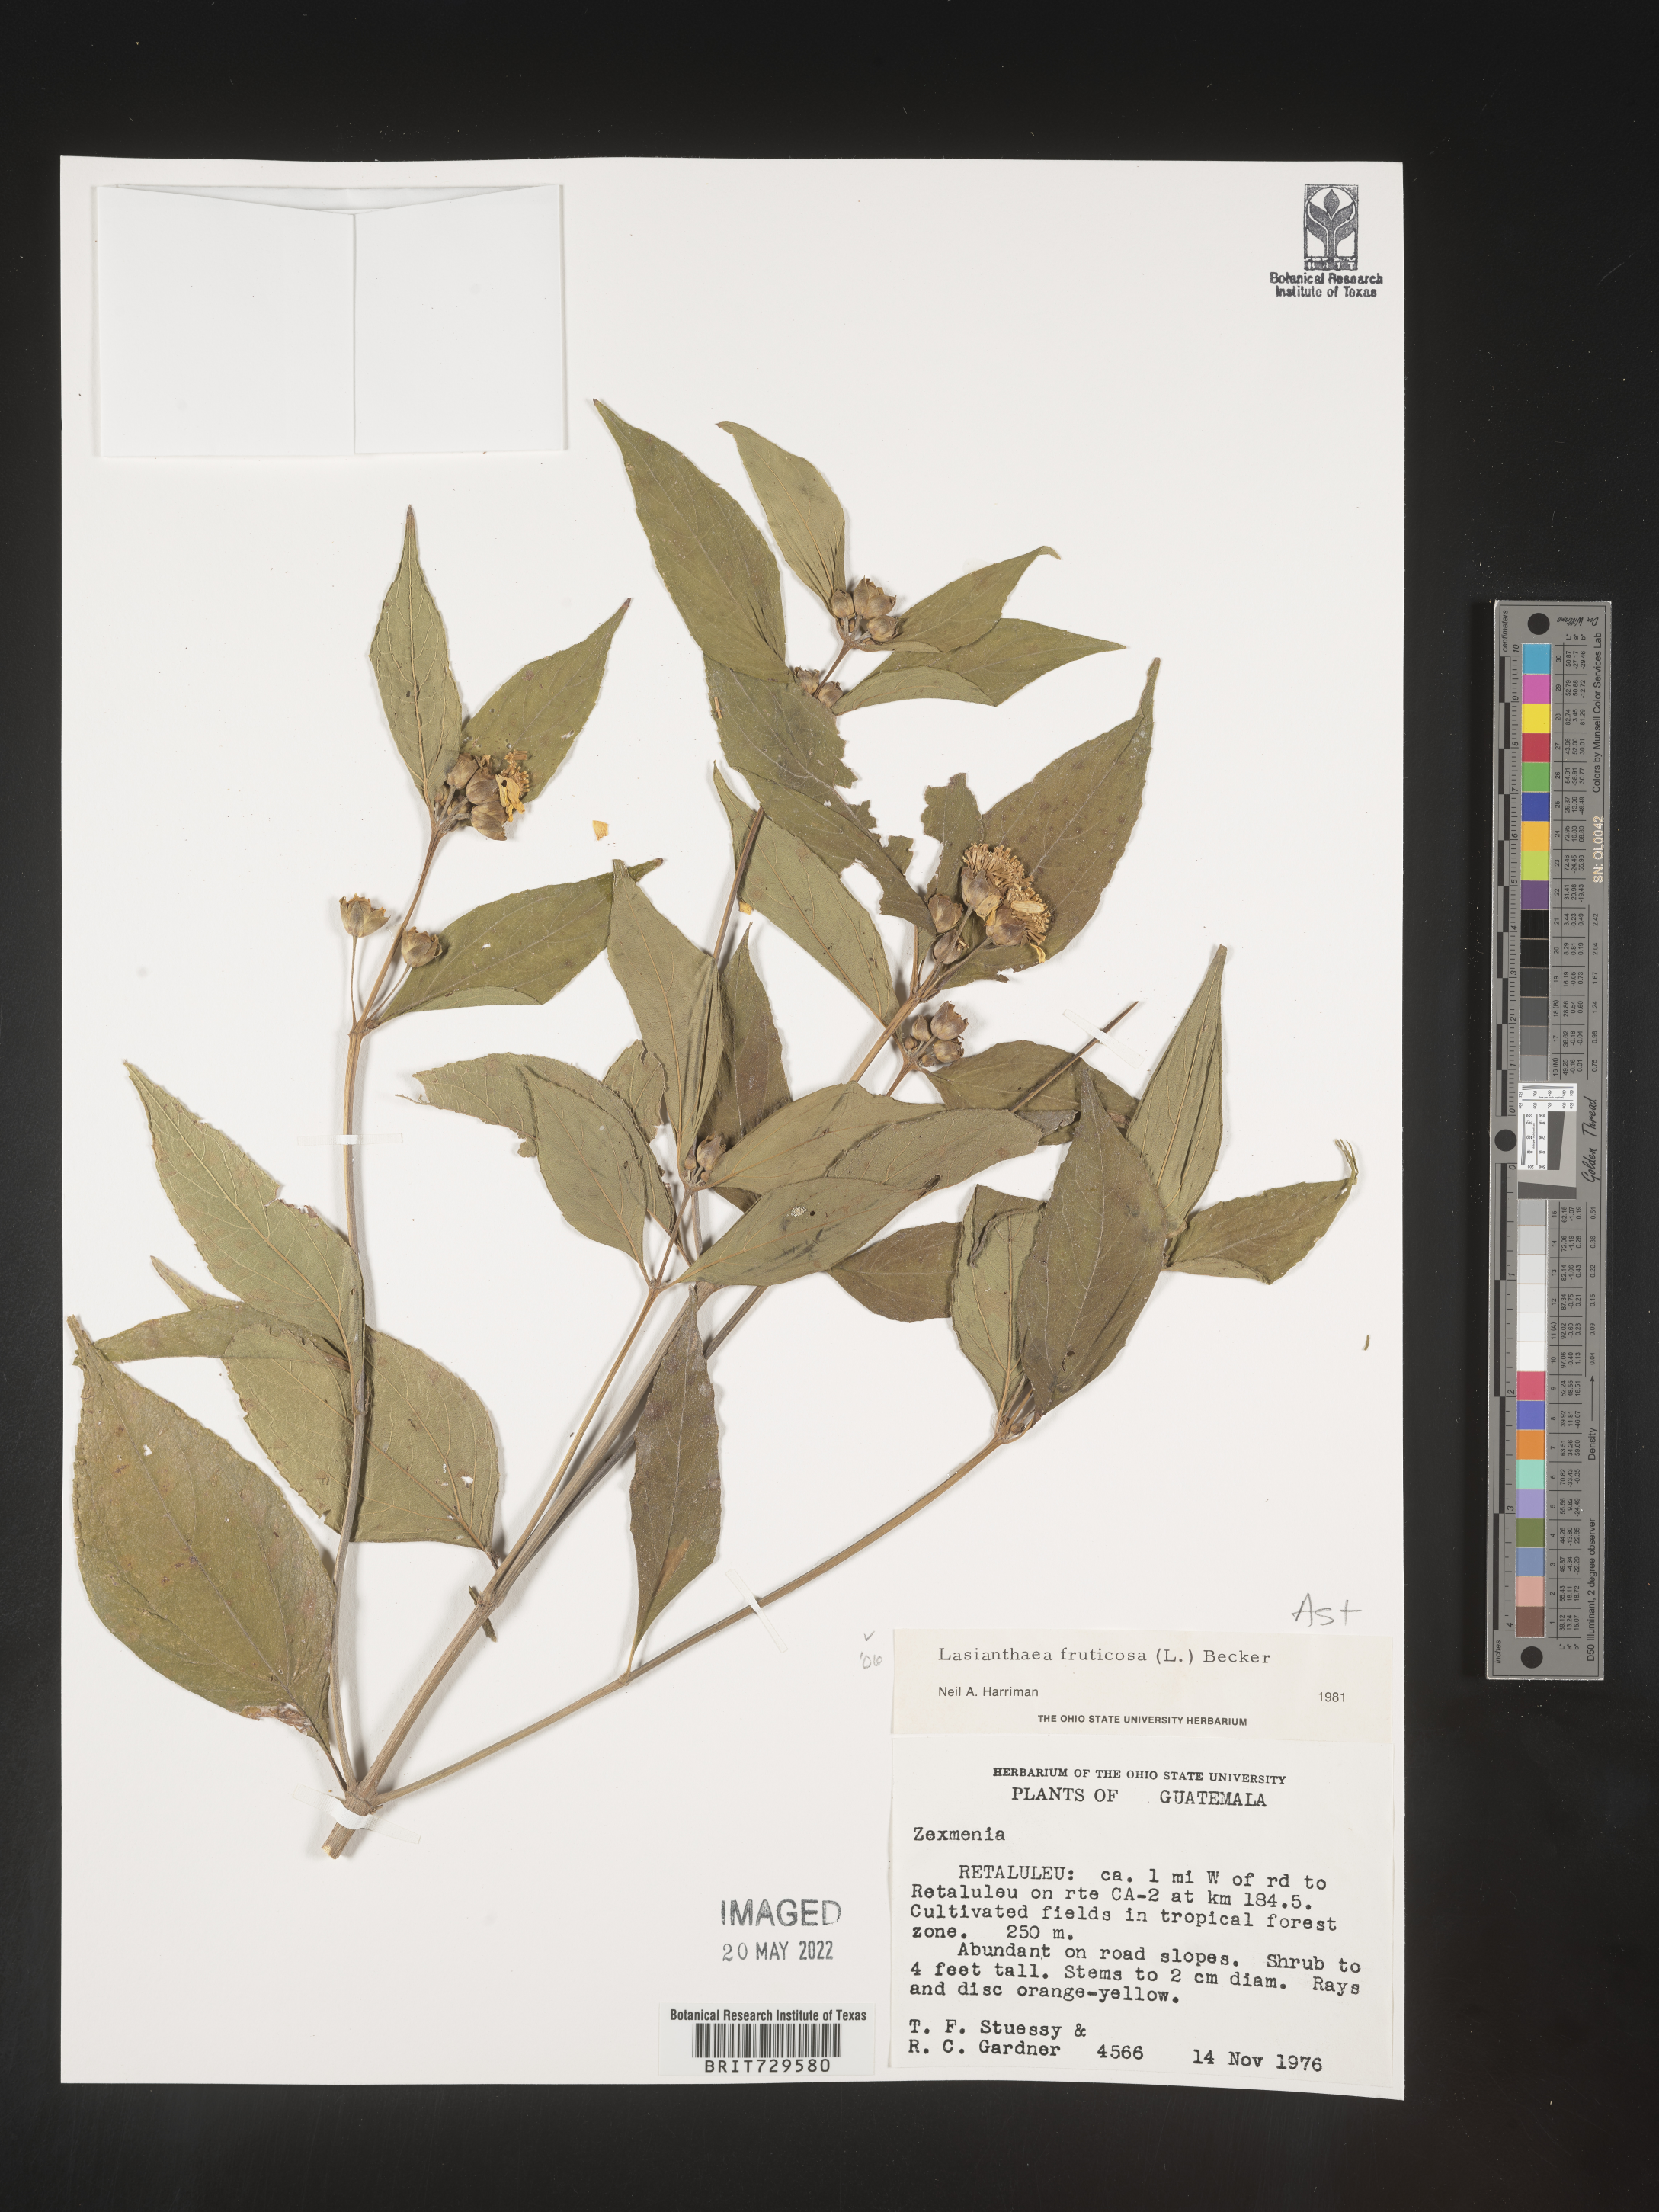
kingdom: Plantae
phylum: Tracheophyta
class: Magnoliopsida
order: Asterales
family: Asteraceae
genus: Lasianthaea
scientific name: Lasianthaea
